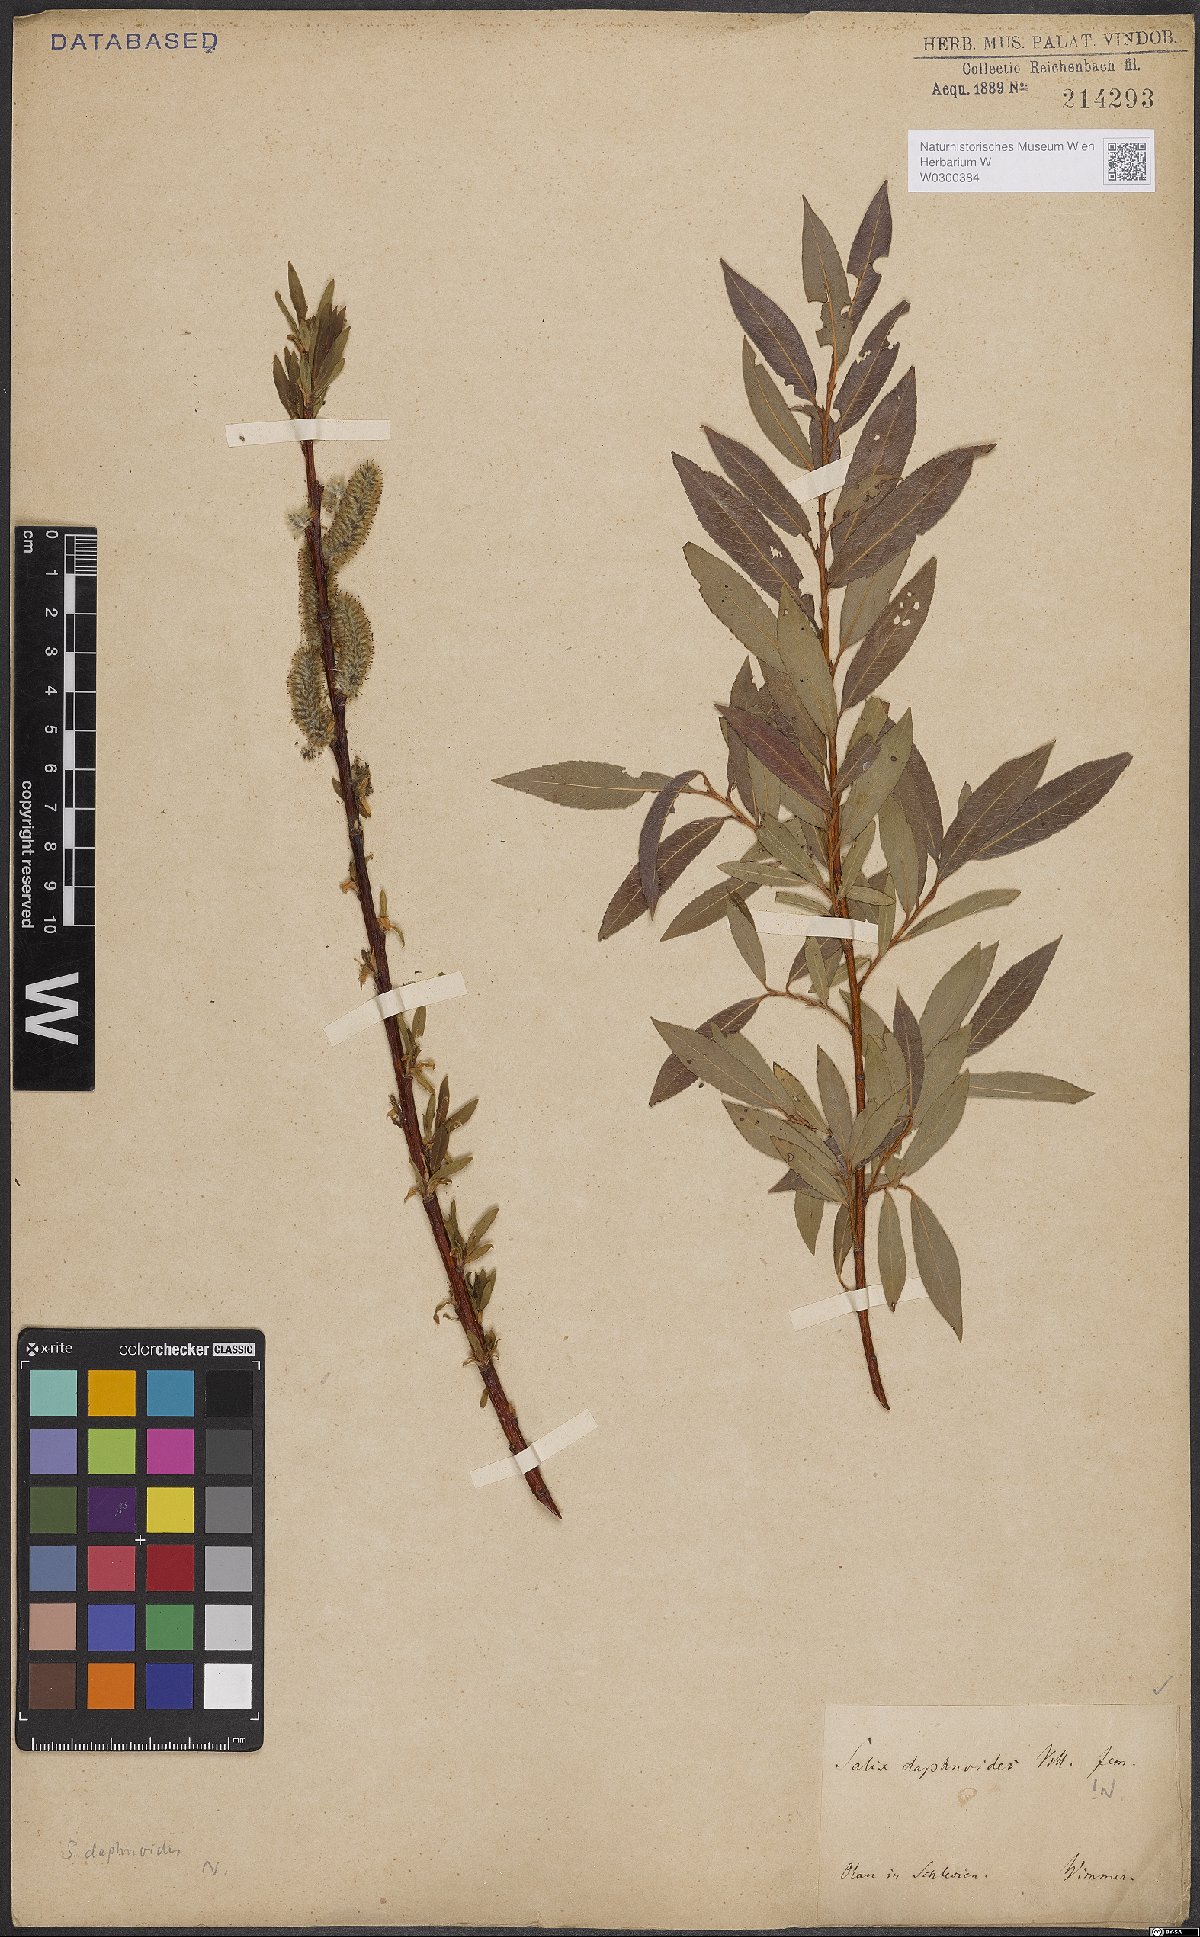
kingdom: Plantae
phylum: Tracheophyta
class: Magnoliopsida
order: Malpighiales
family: Salicaceae
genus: Salix
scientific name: Salix daphnoides
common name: European violet-willow
